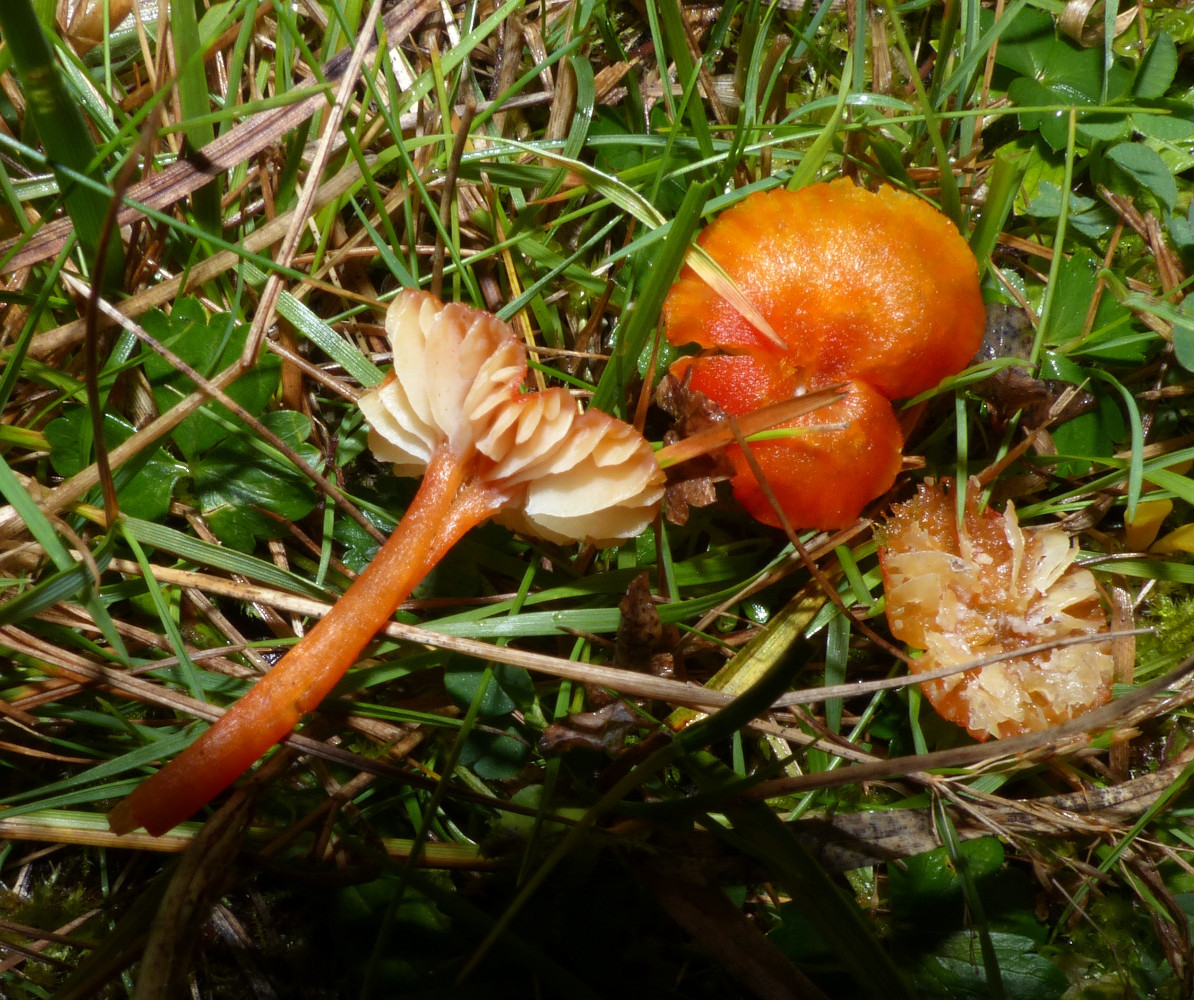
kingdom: Fungi
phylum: Basidiomycota
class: Agaricomycetes
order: Agaricales
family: Hygrophoraceae
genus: Hygrocybe
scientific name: Hygrocybe helobia
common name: hvidløgs-vokshat
